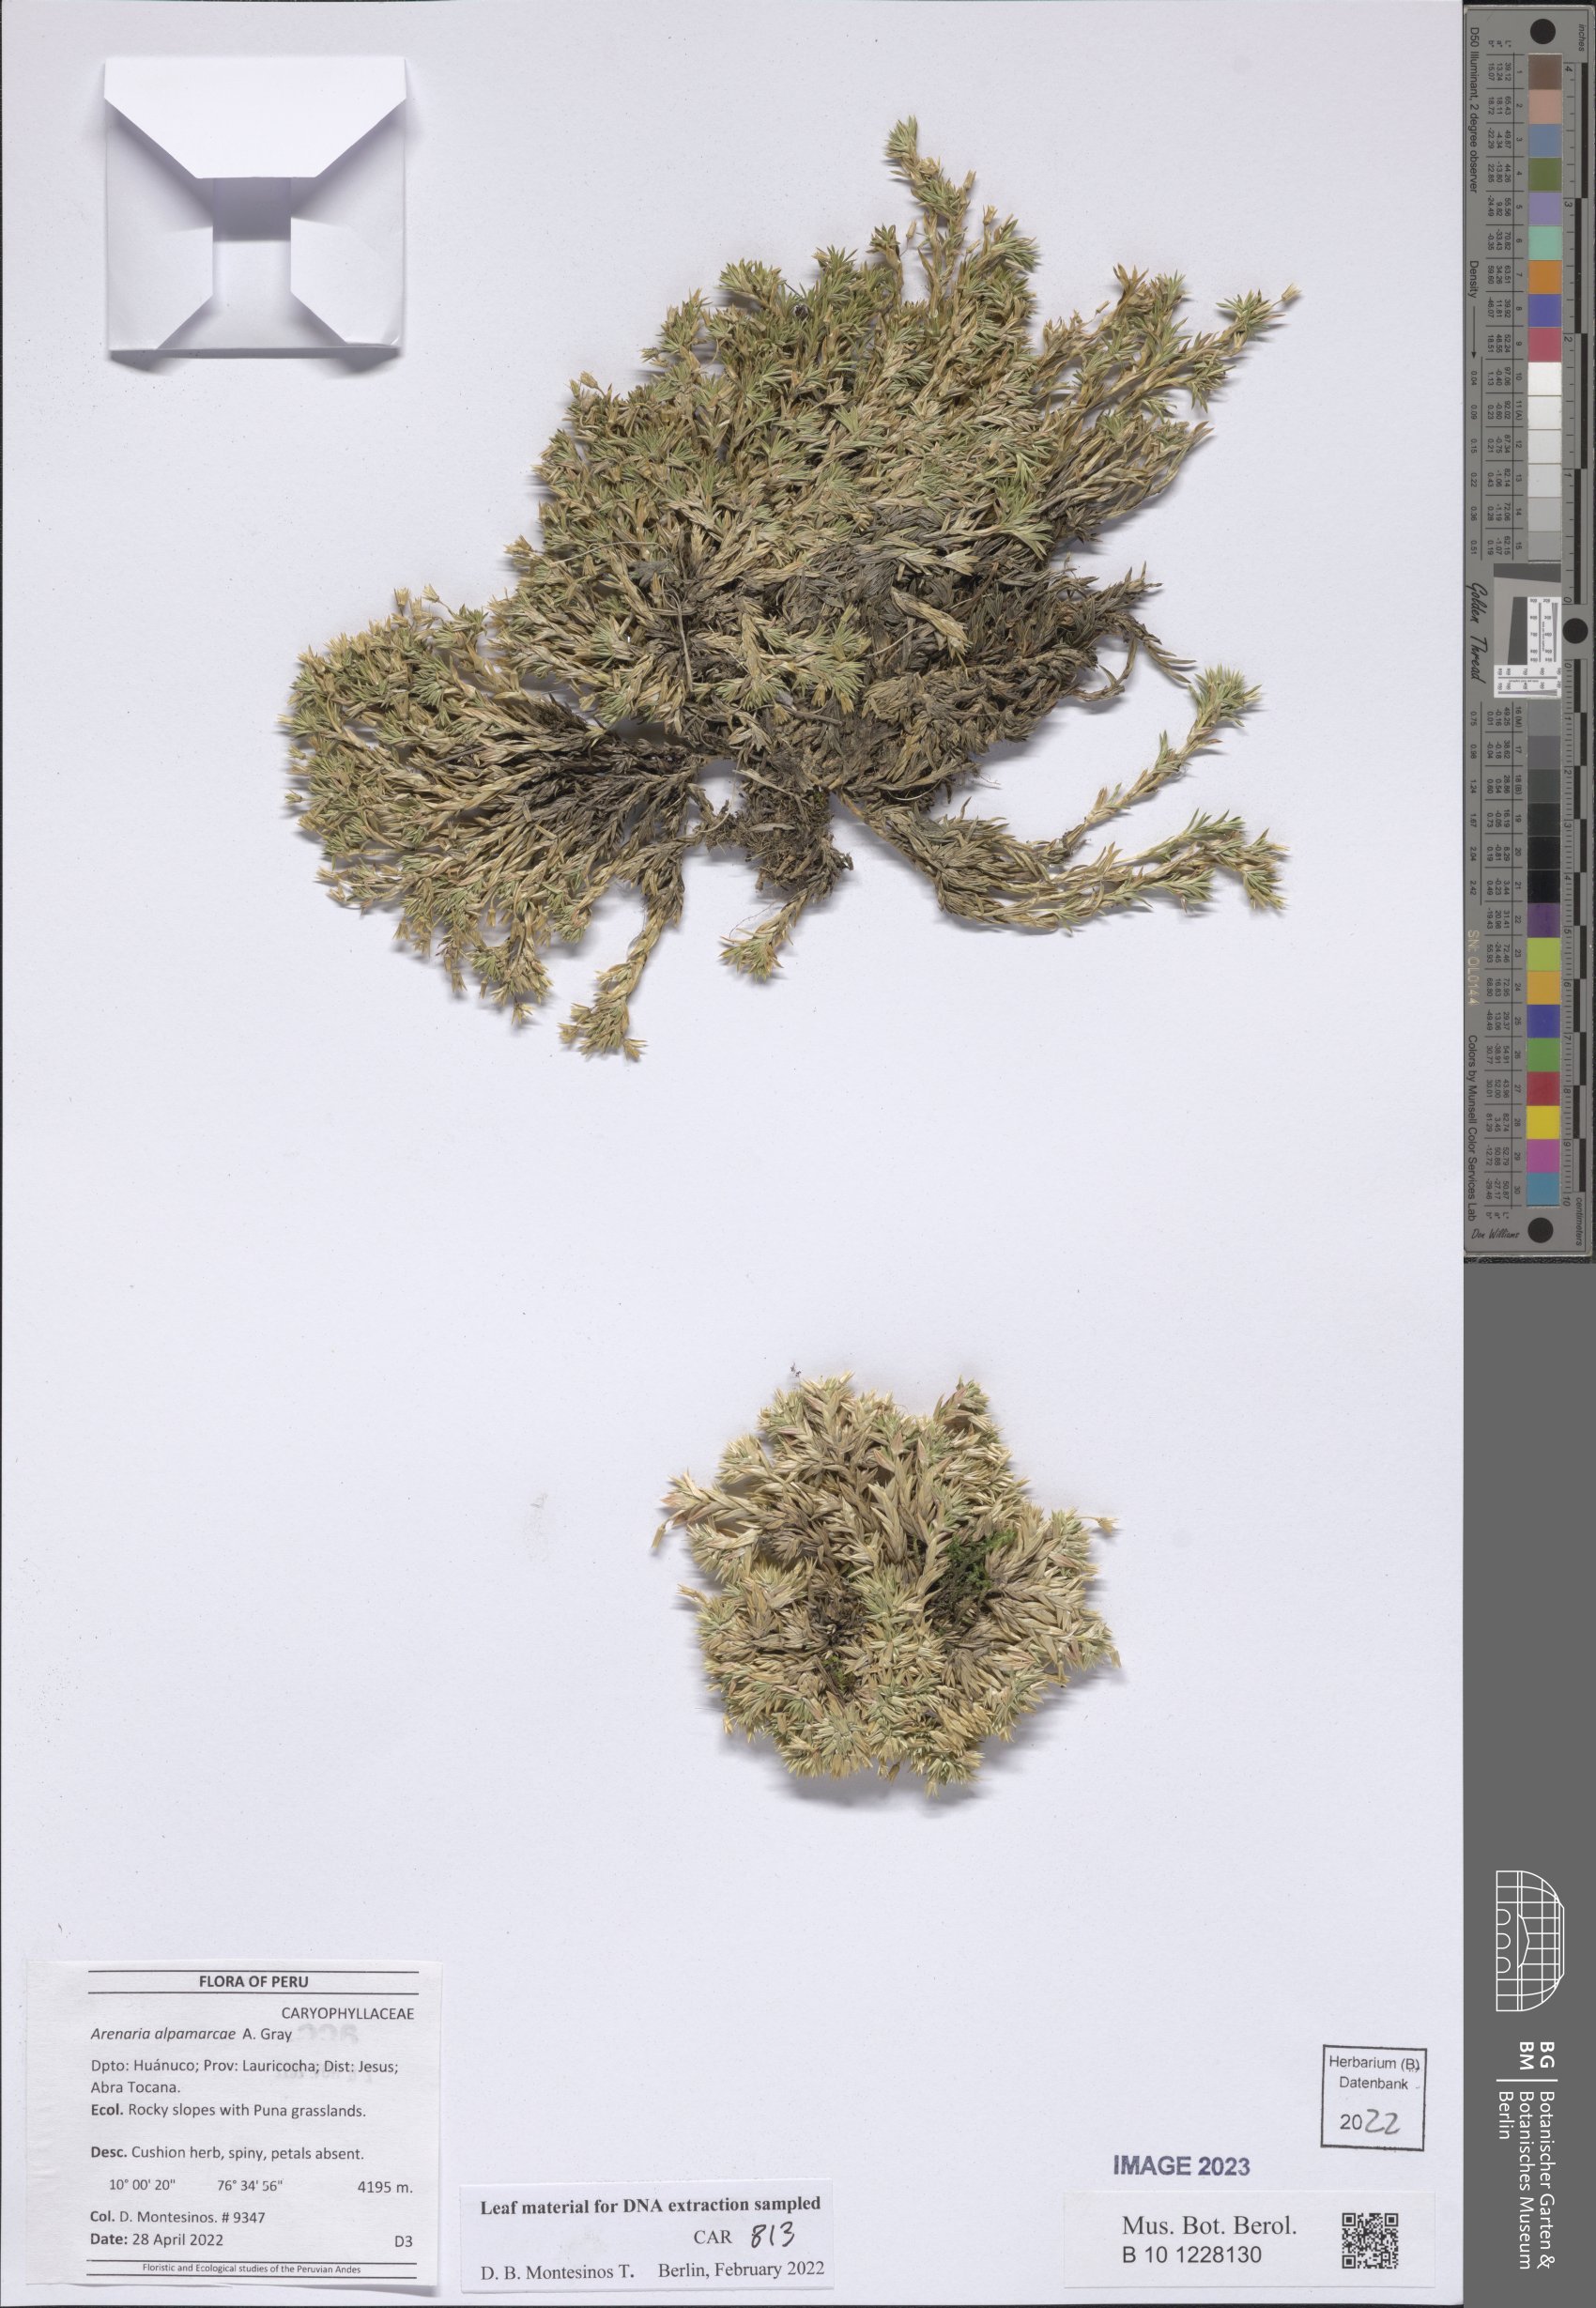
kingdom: Plantae
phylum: Tracheophyta
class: Magnoliopsida
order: Caryophyllales
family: Caryophyllaceae
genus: Arenaria
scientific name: Arenaria alpamarcae
